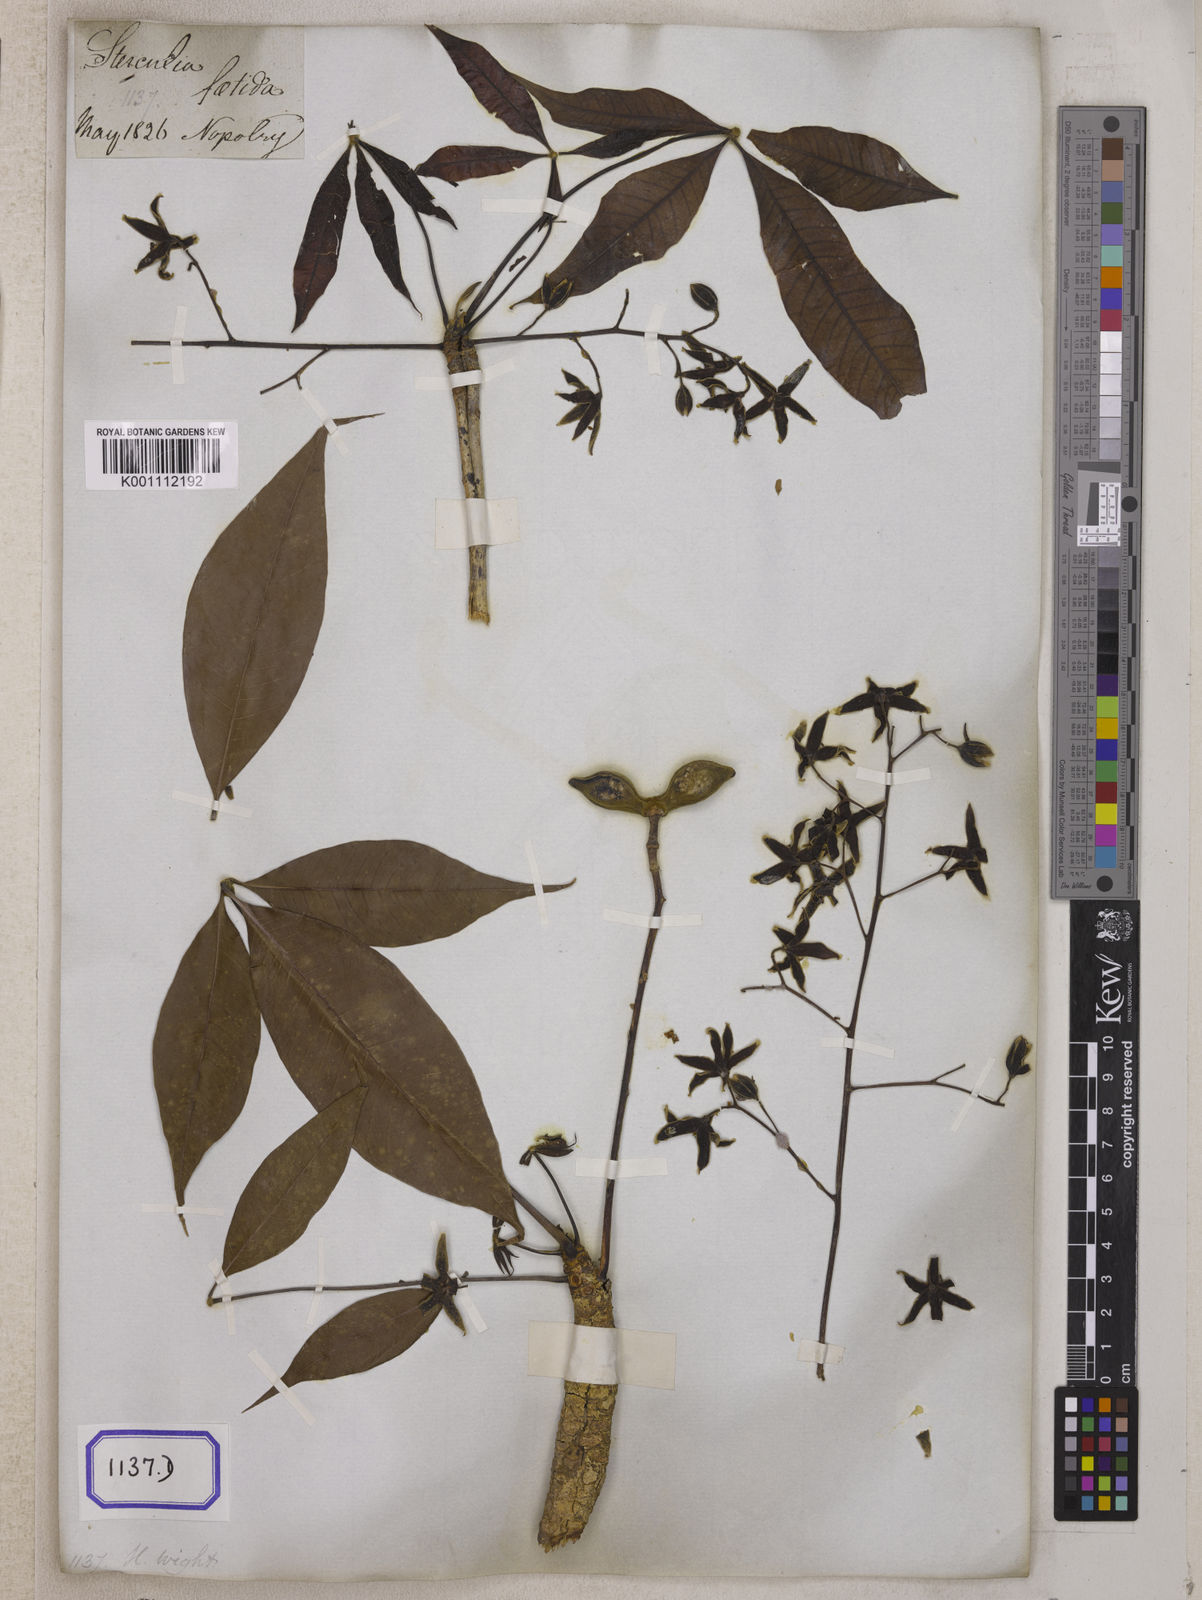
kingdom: Plantae
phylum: Tracheophyta
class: Magnoliopsida
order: Malvales
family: Malvaceae
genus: Sterculia
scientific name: Sterculia foetida
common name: Hazel sterculia
